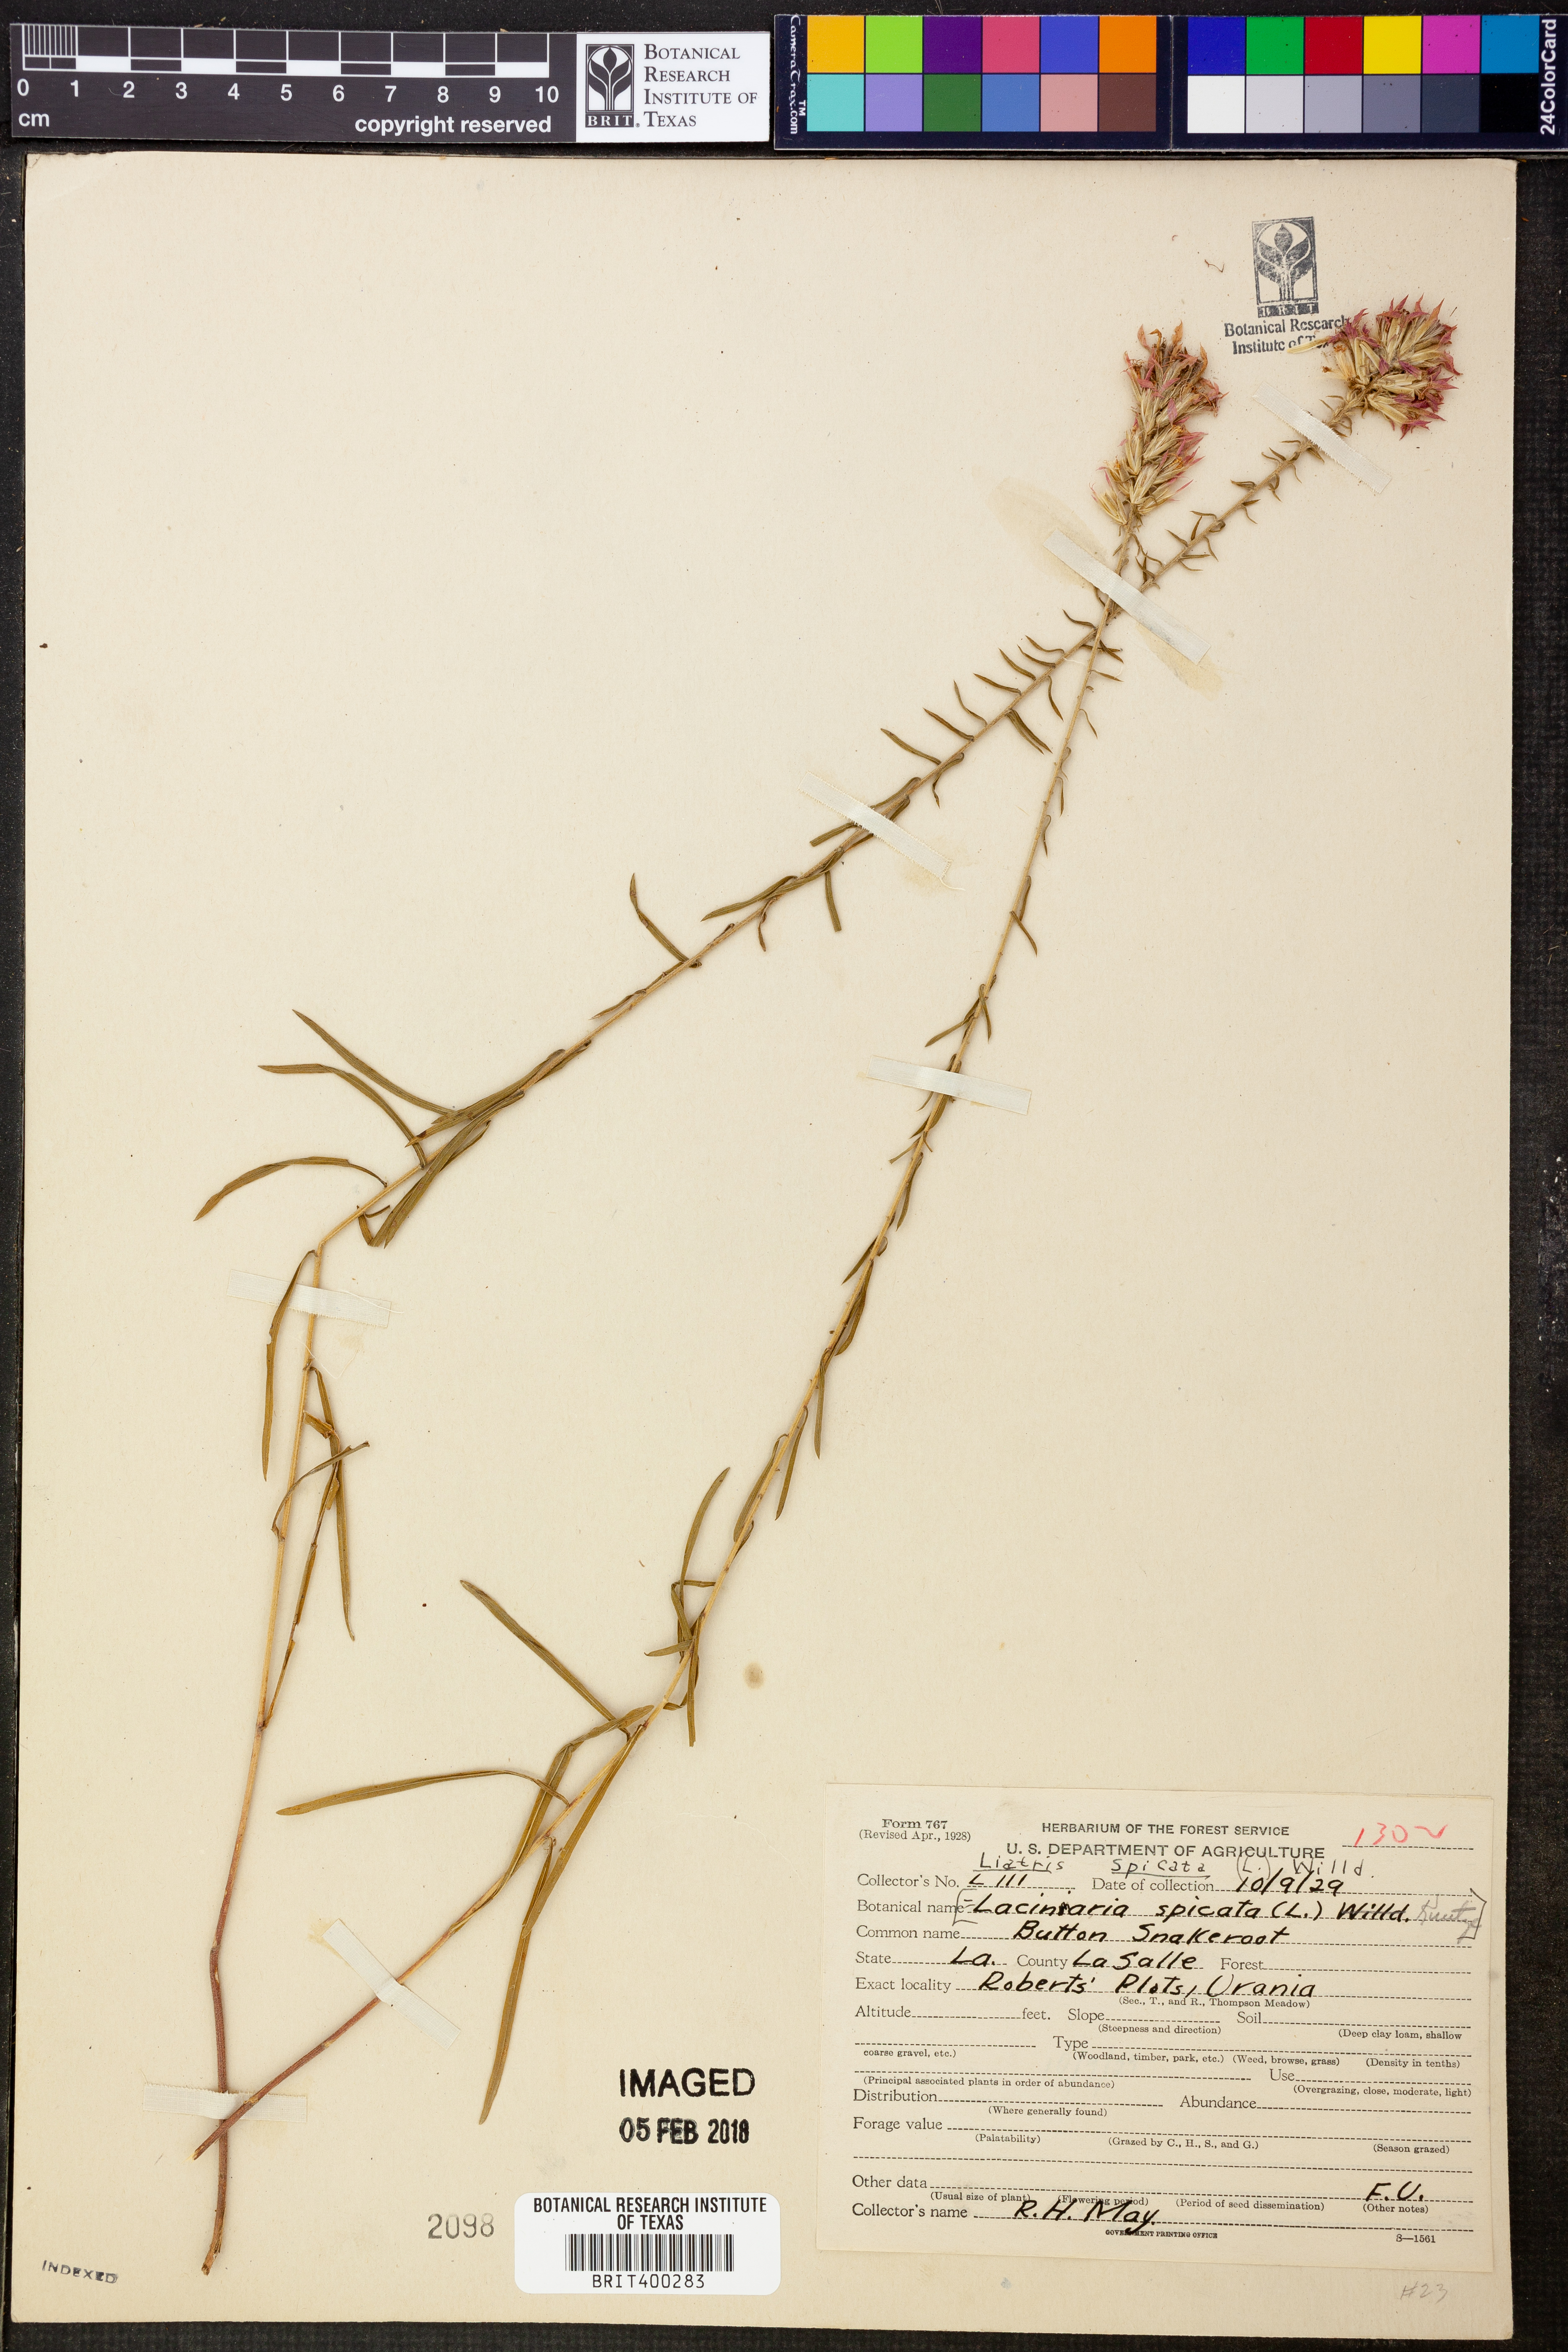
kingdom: Plantae
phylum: Tracheophyta
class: Magnoliopsida
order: Asterales
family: Asteraceae
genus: Liatris
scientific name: Liatris spicata
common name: Florist gayfeather
